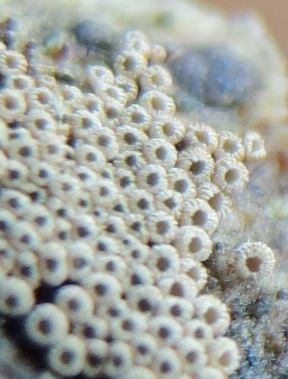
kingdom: Fungi
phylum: Basidiomycota
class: Agaricomycetes
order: Agaricales
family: Niaceae
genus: Merismodes
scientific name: Merismodes anomala
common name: almindelig læderskål
